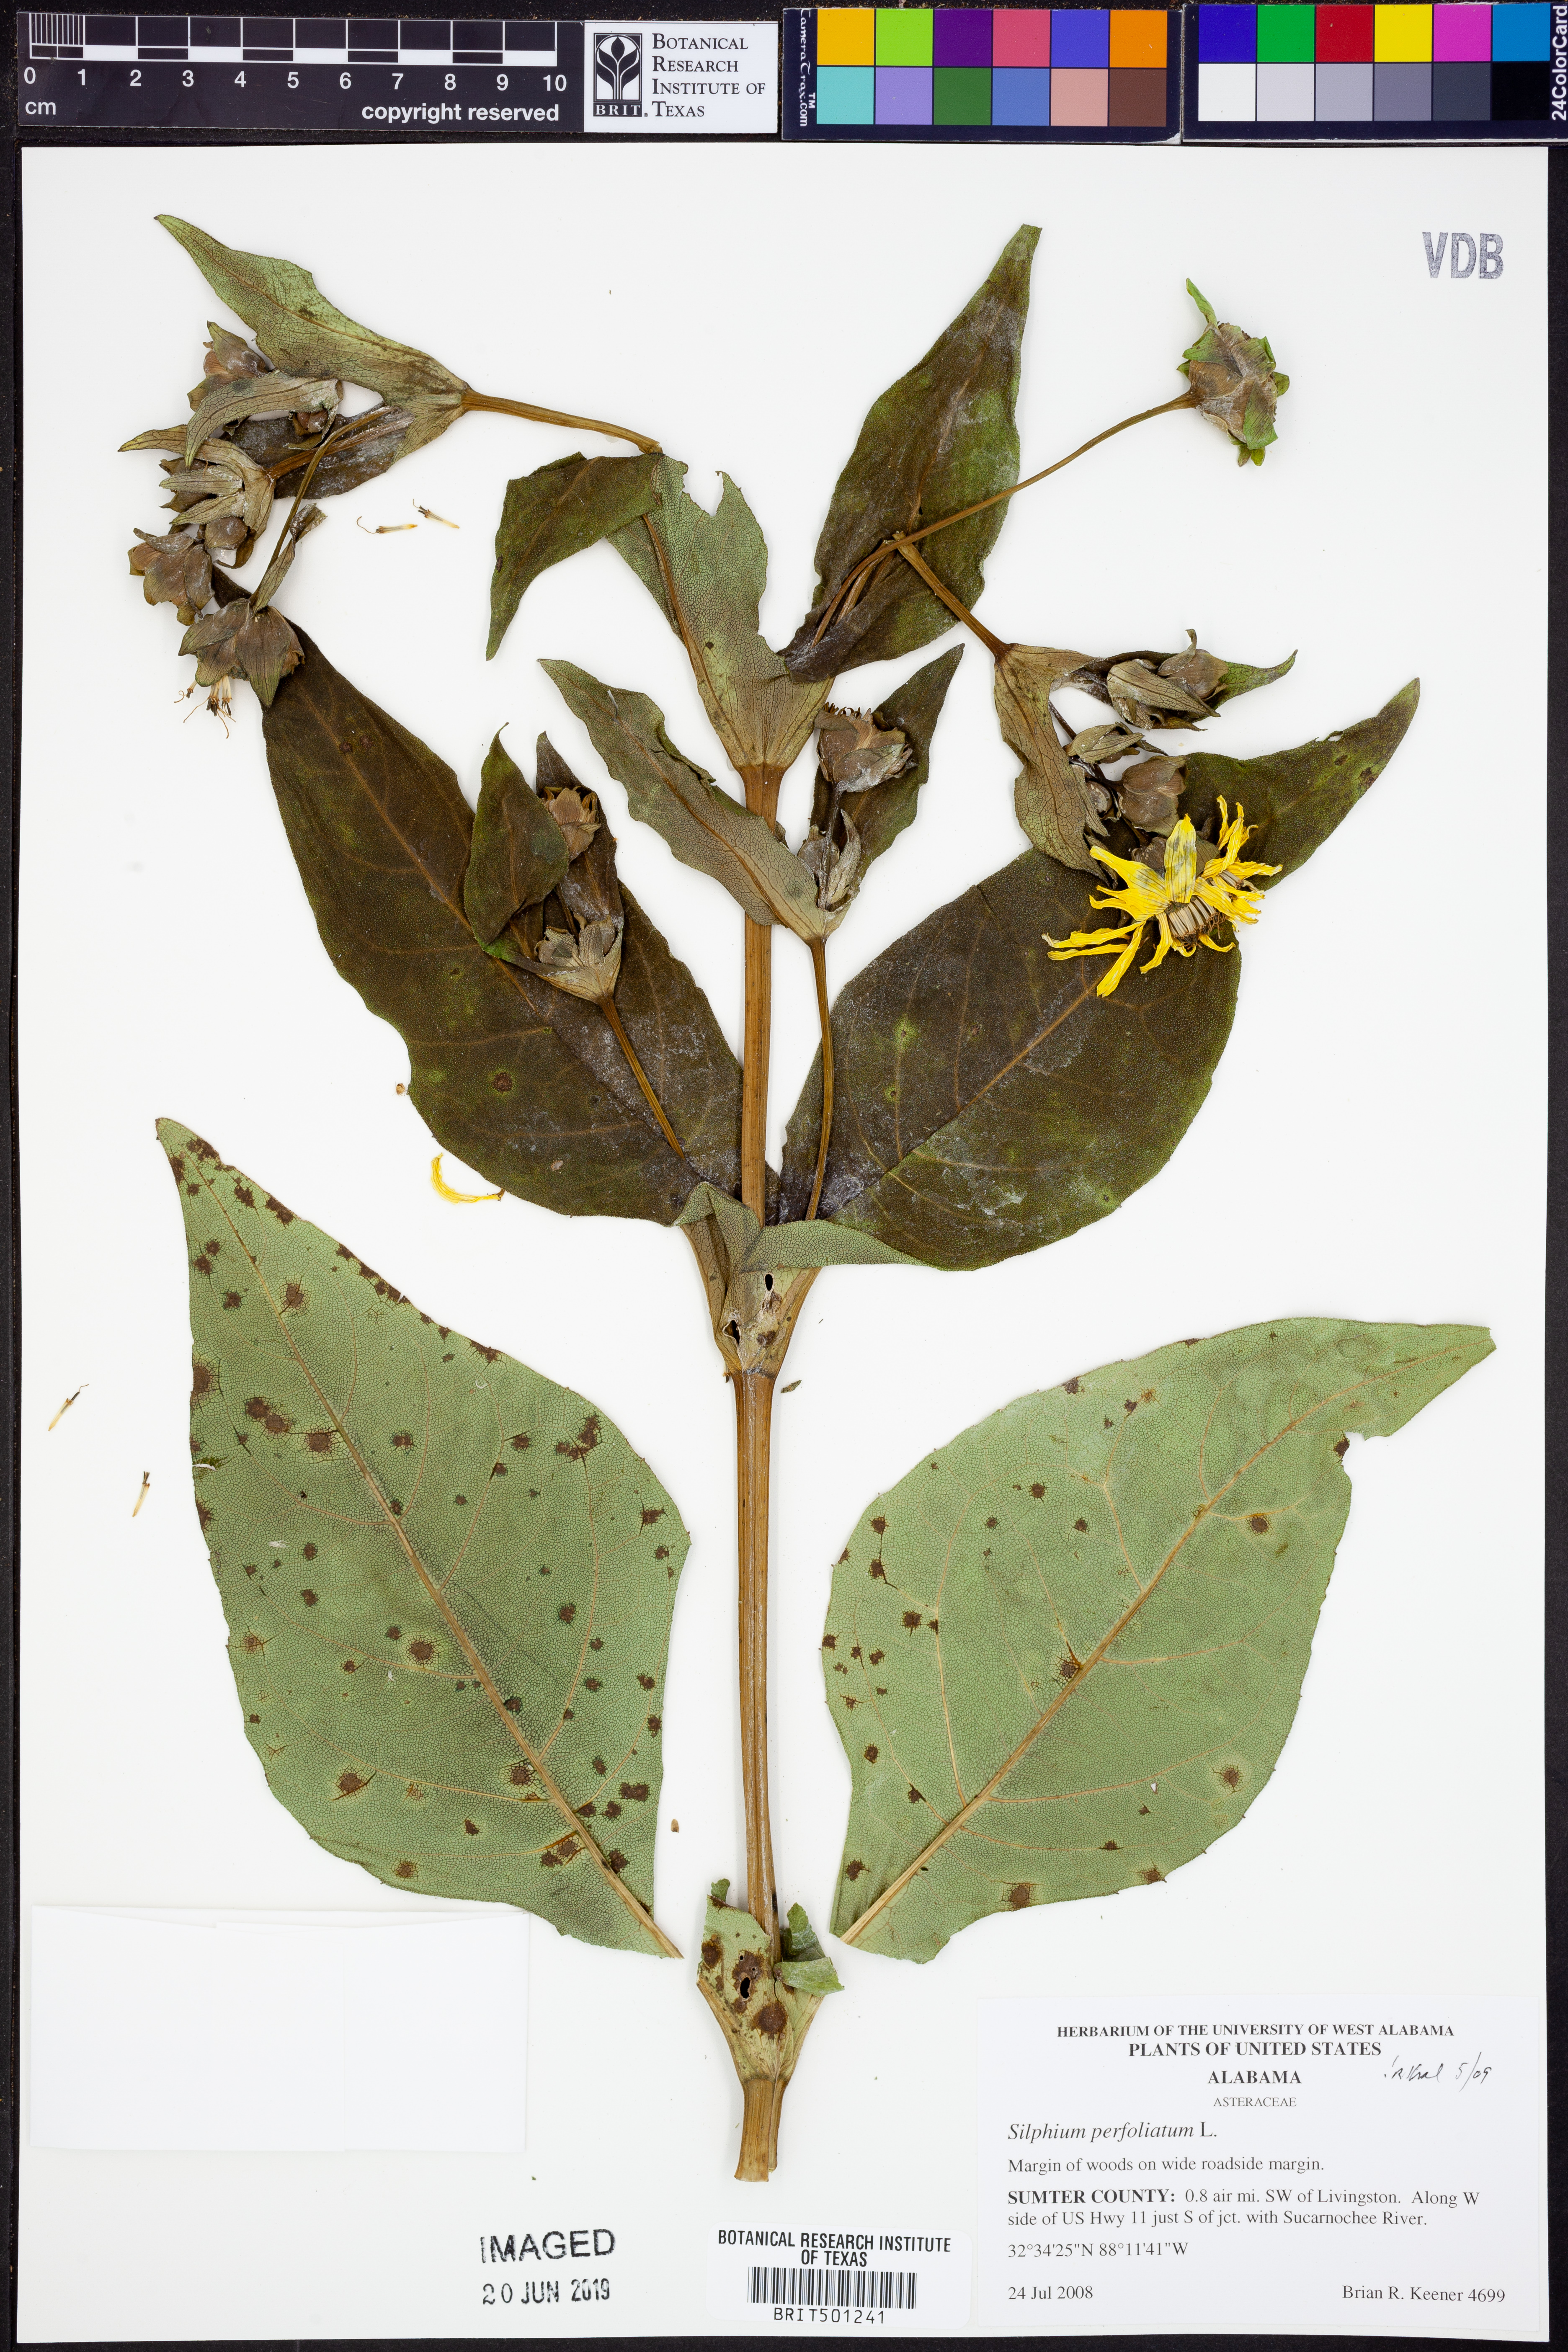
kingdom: Plantae
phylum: Tracheophyta
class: Magnoliopsida
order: Asterales
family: Asteraceae
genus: Silphium
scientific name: Silphium perfoliatum
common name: Cup-plant
